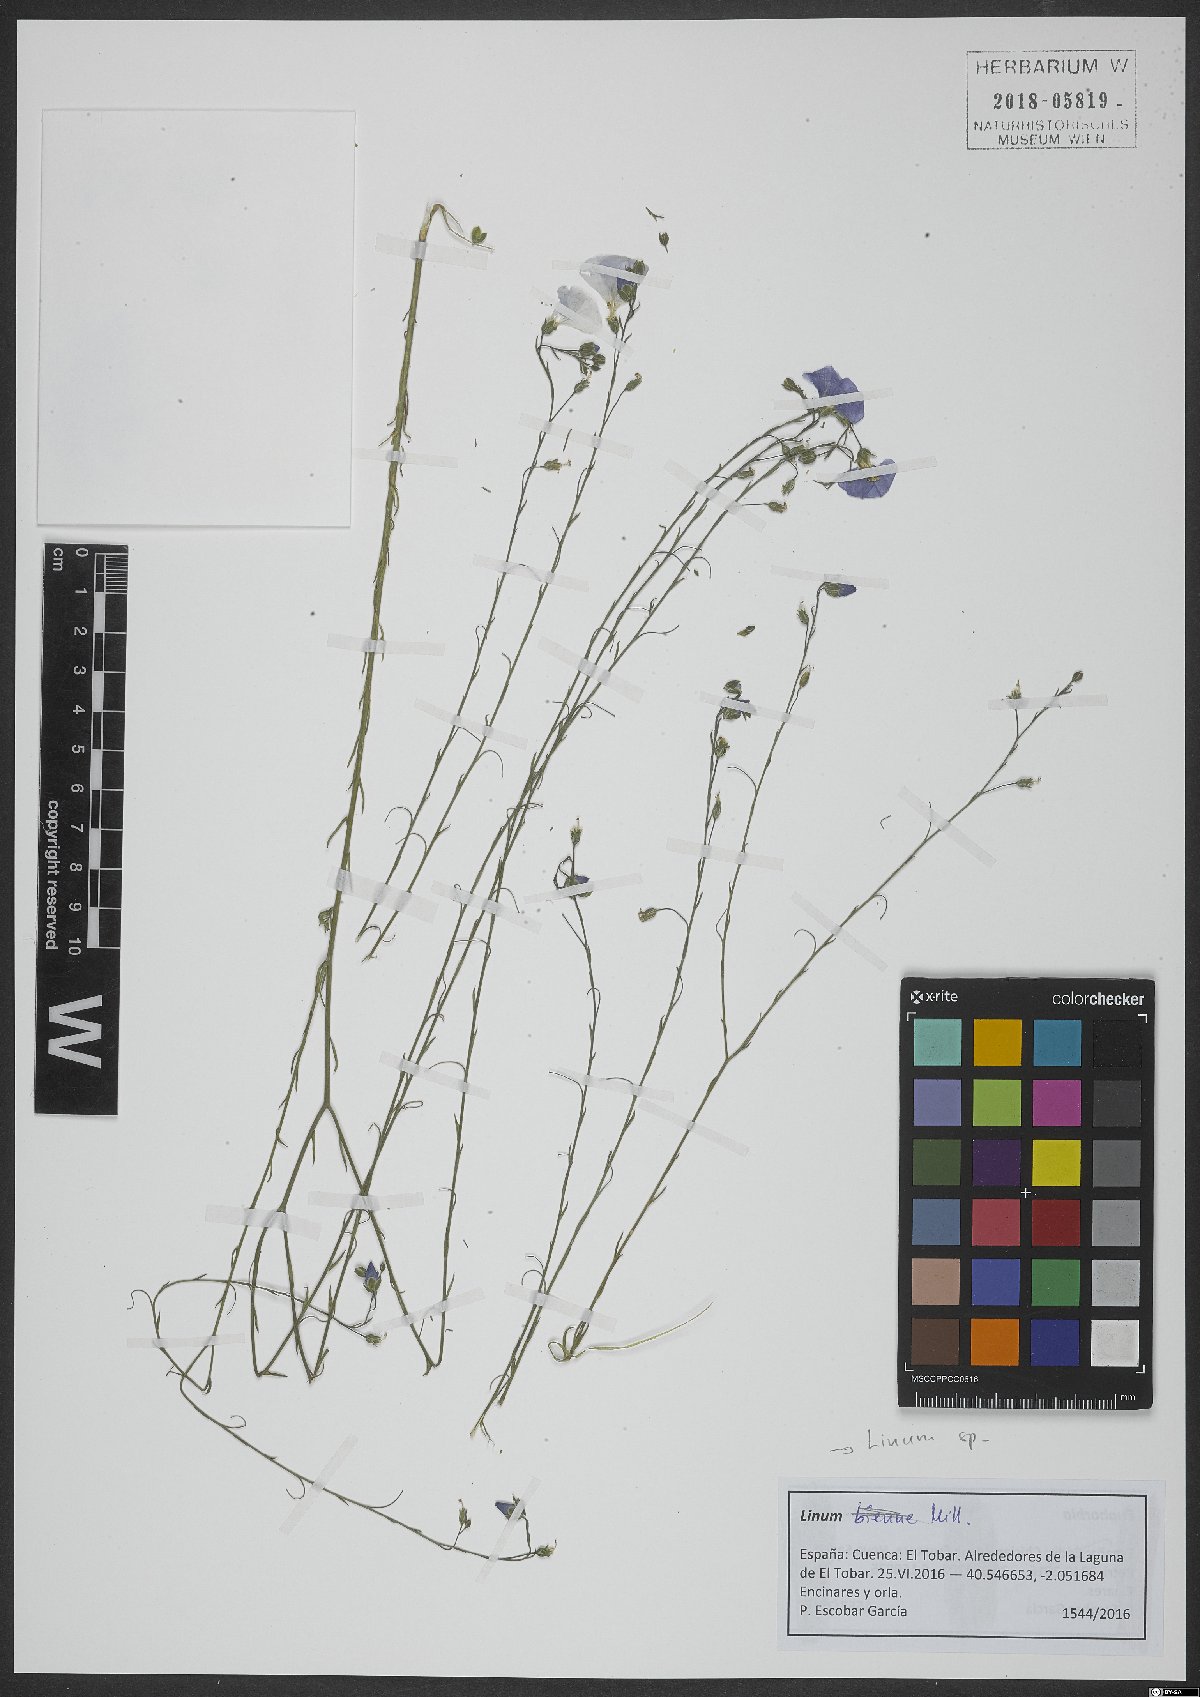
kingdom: Plantae
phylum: Tracheophyta
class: Magnoliopsida
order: Malpighiales
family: Linaceae
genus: Linum
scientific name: Linum
